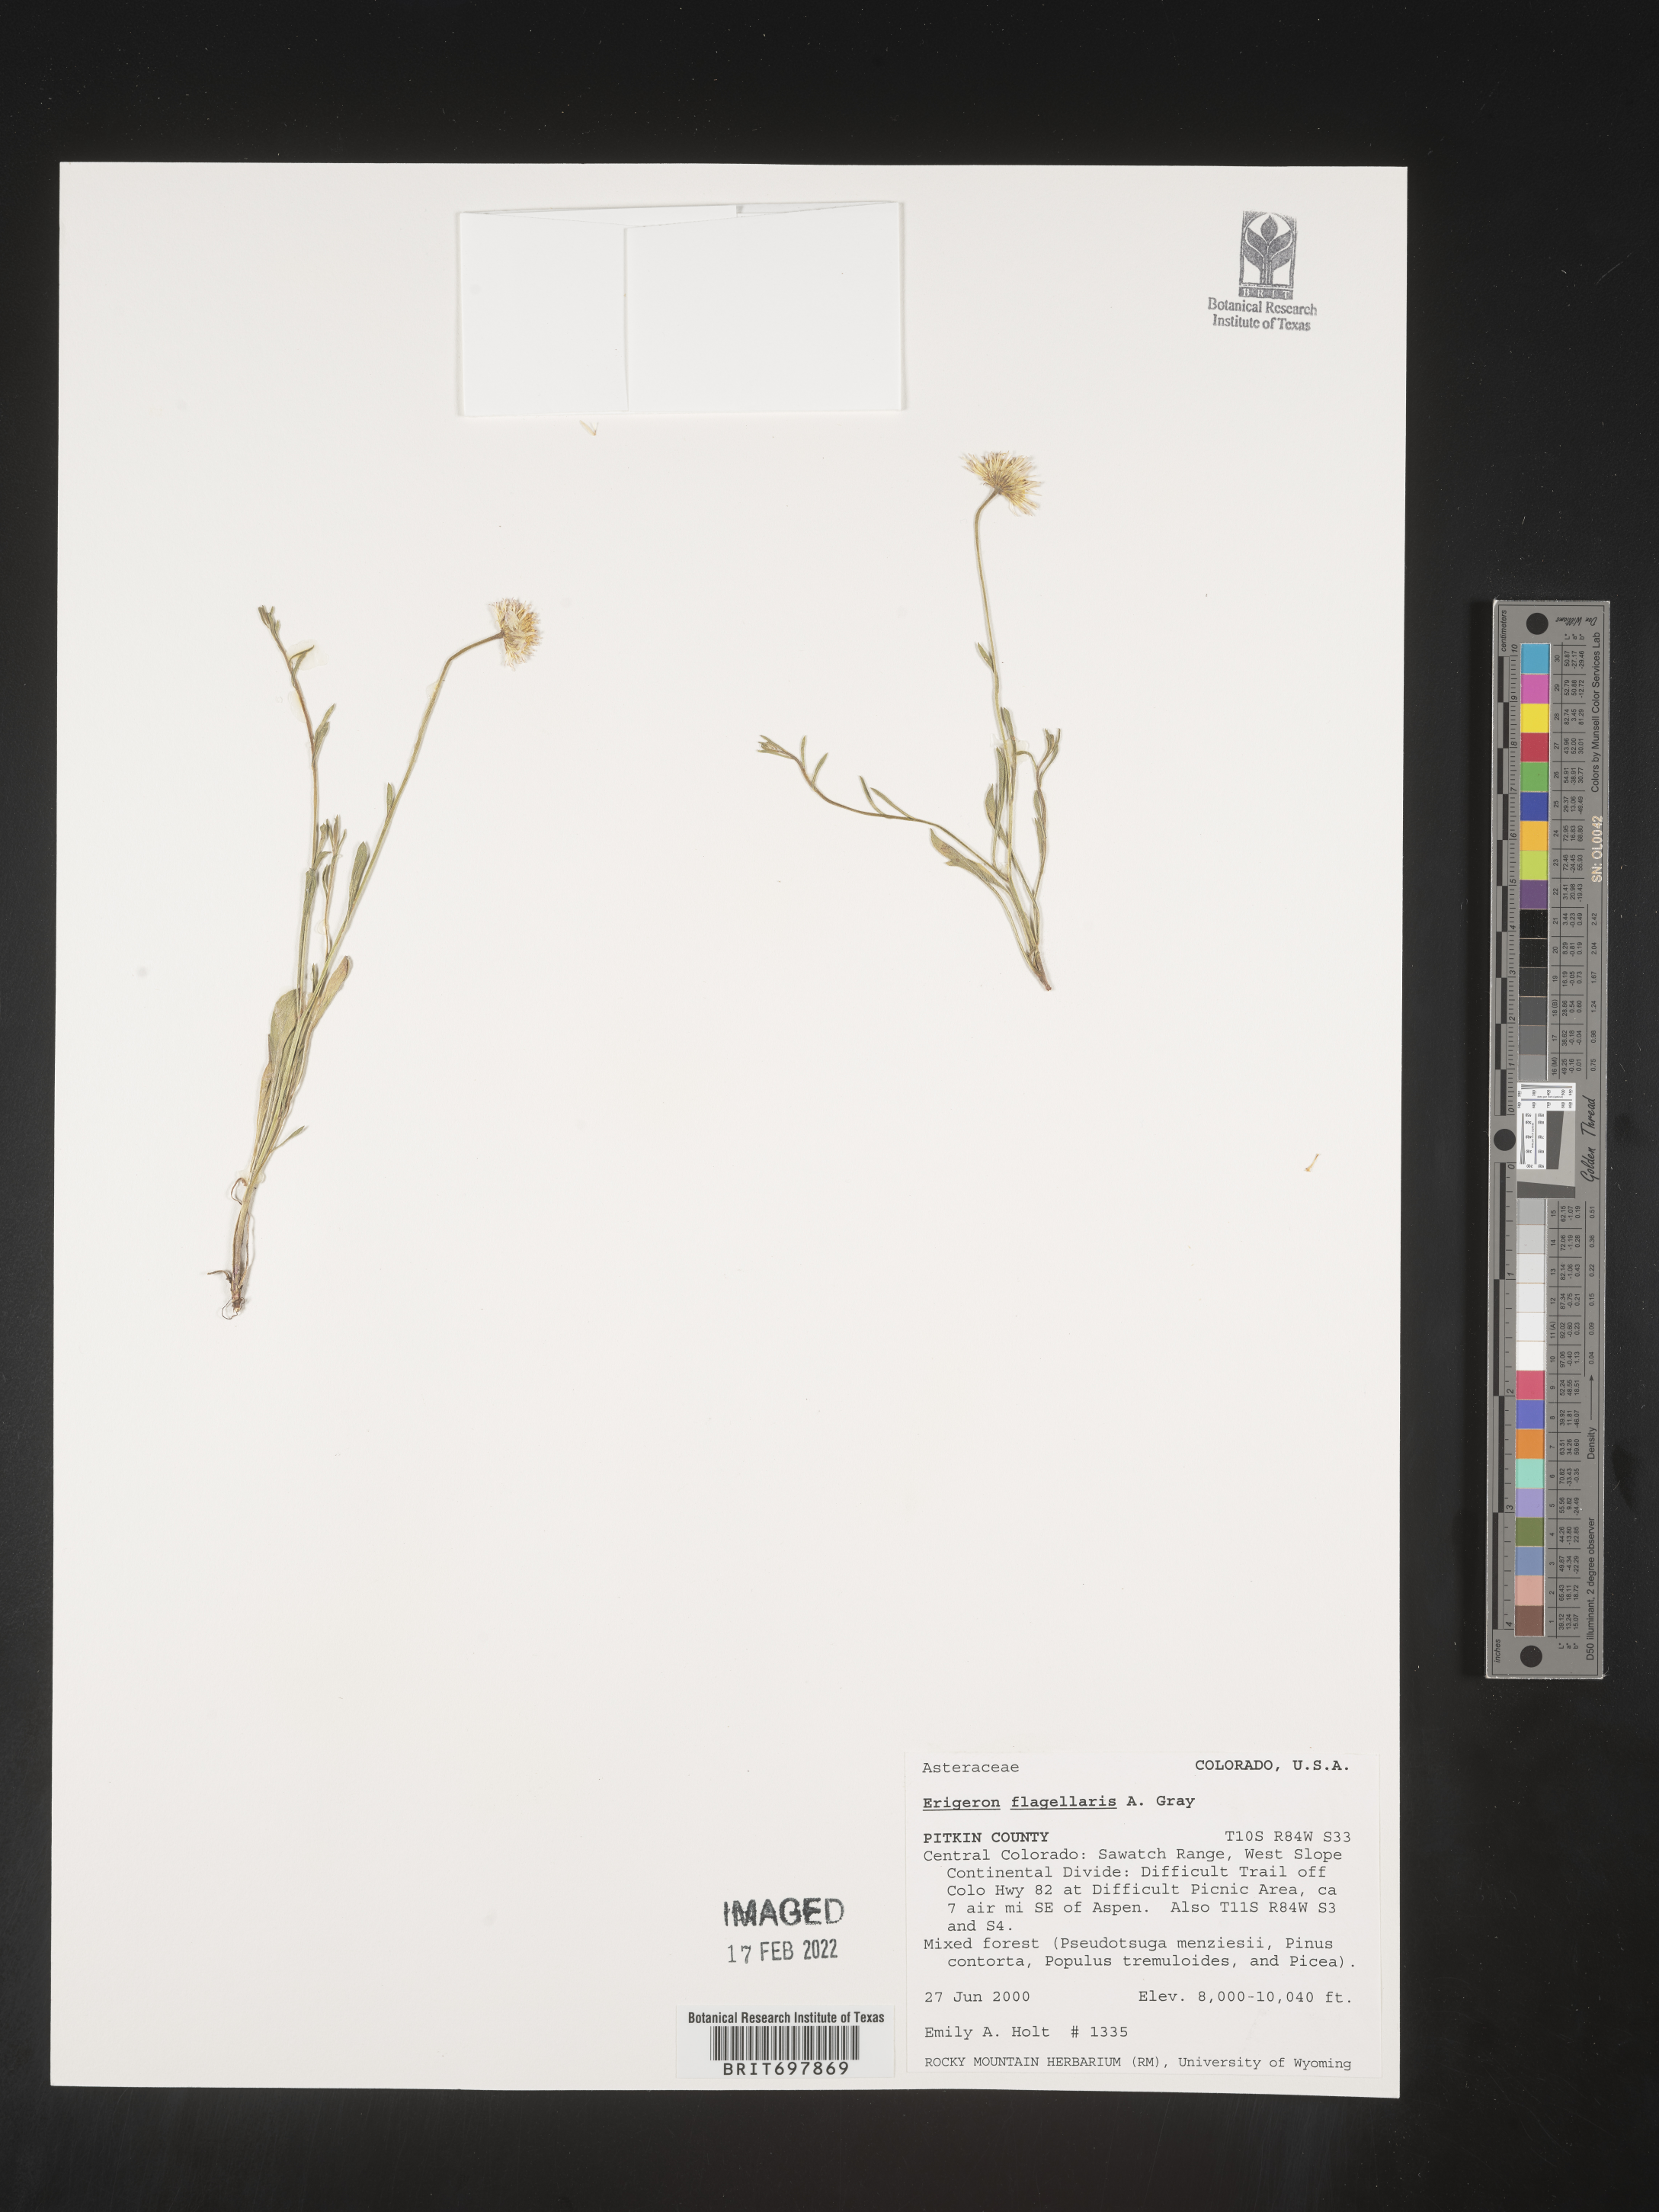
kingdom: Plantae
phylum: Tracheophyta
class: Magnoliopsida
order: Asterales
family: Asteraceae
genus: Erigeron
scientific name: Erigeron flagellaris
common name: Running fleabane
